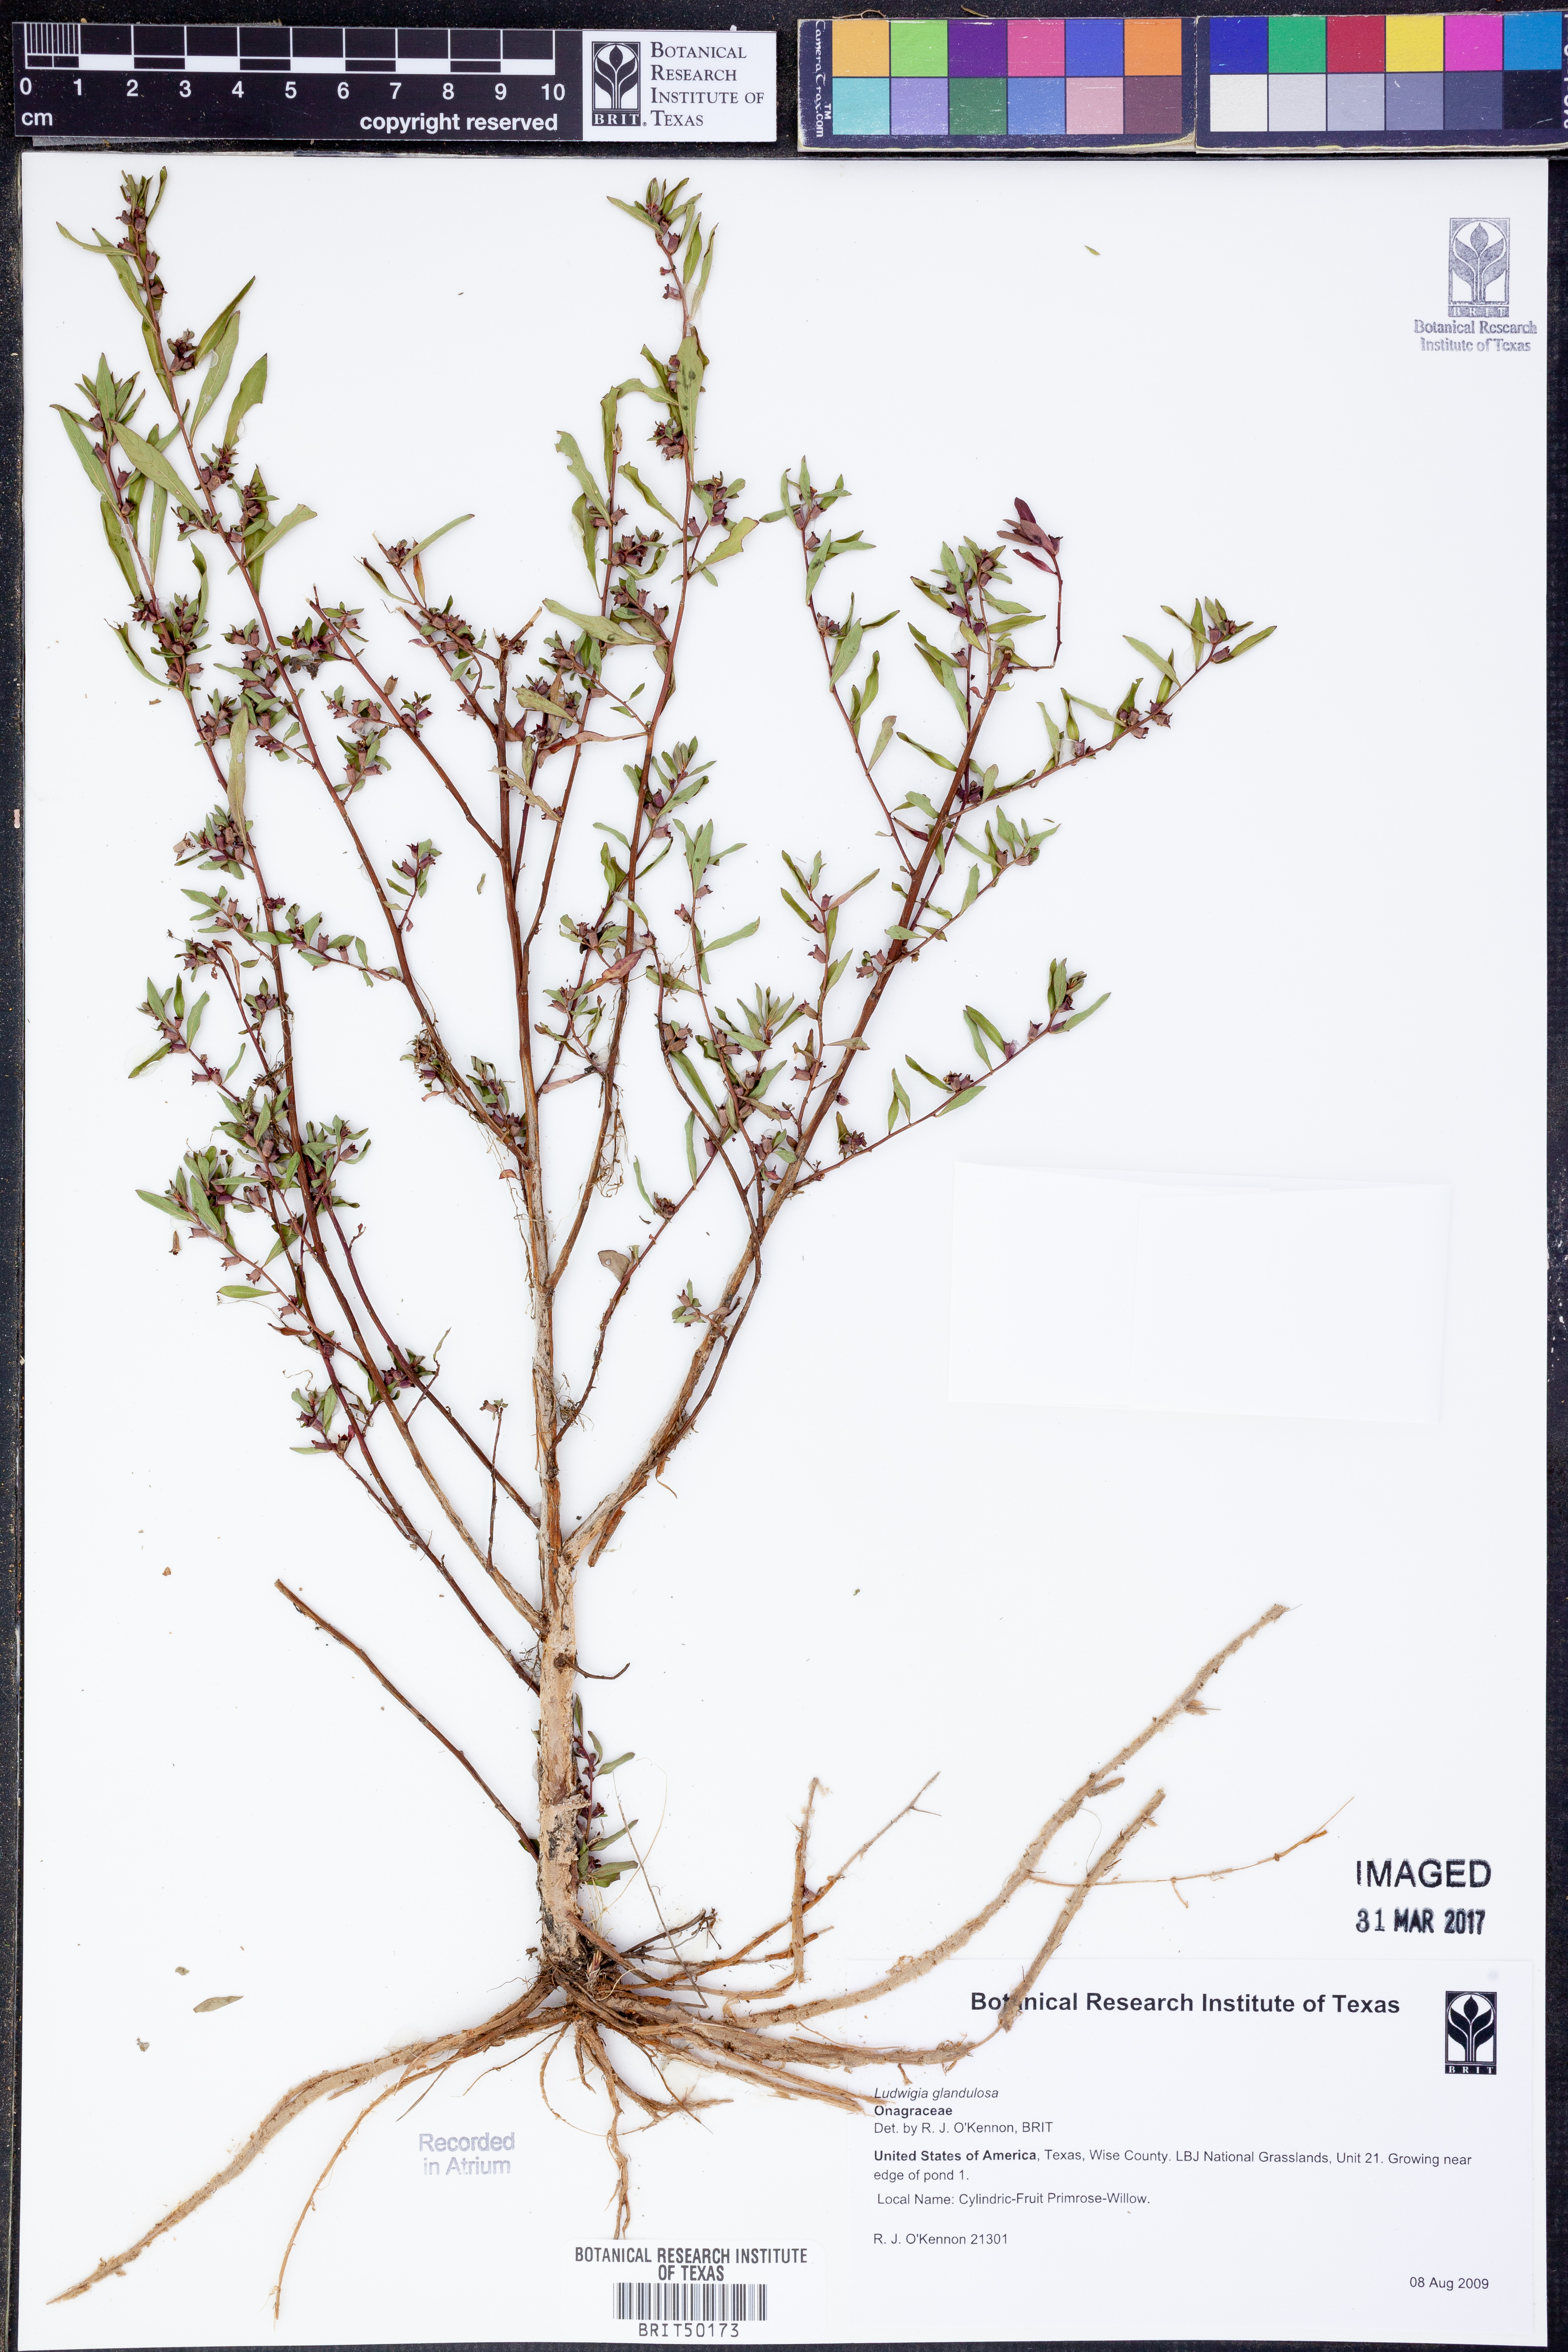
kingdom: Plantae
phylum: Tracheophyta
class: Magnoliopsida
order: Myrtales
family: Onagraceae
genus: Ludwigia
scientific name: Ludwigia glandulosa
